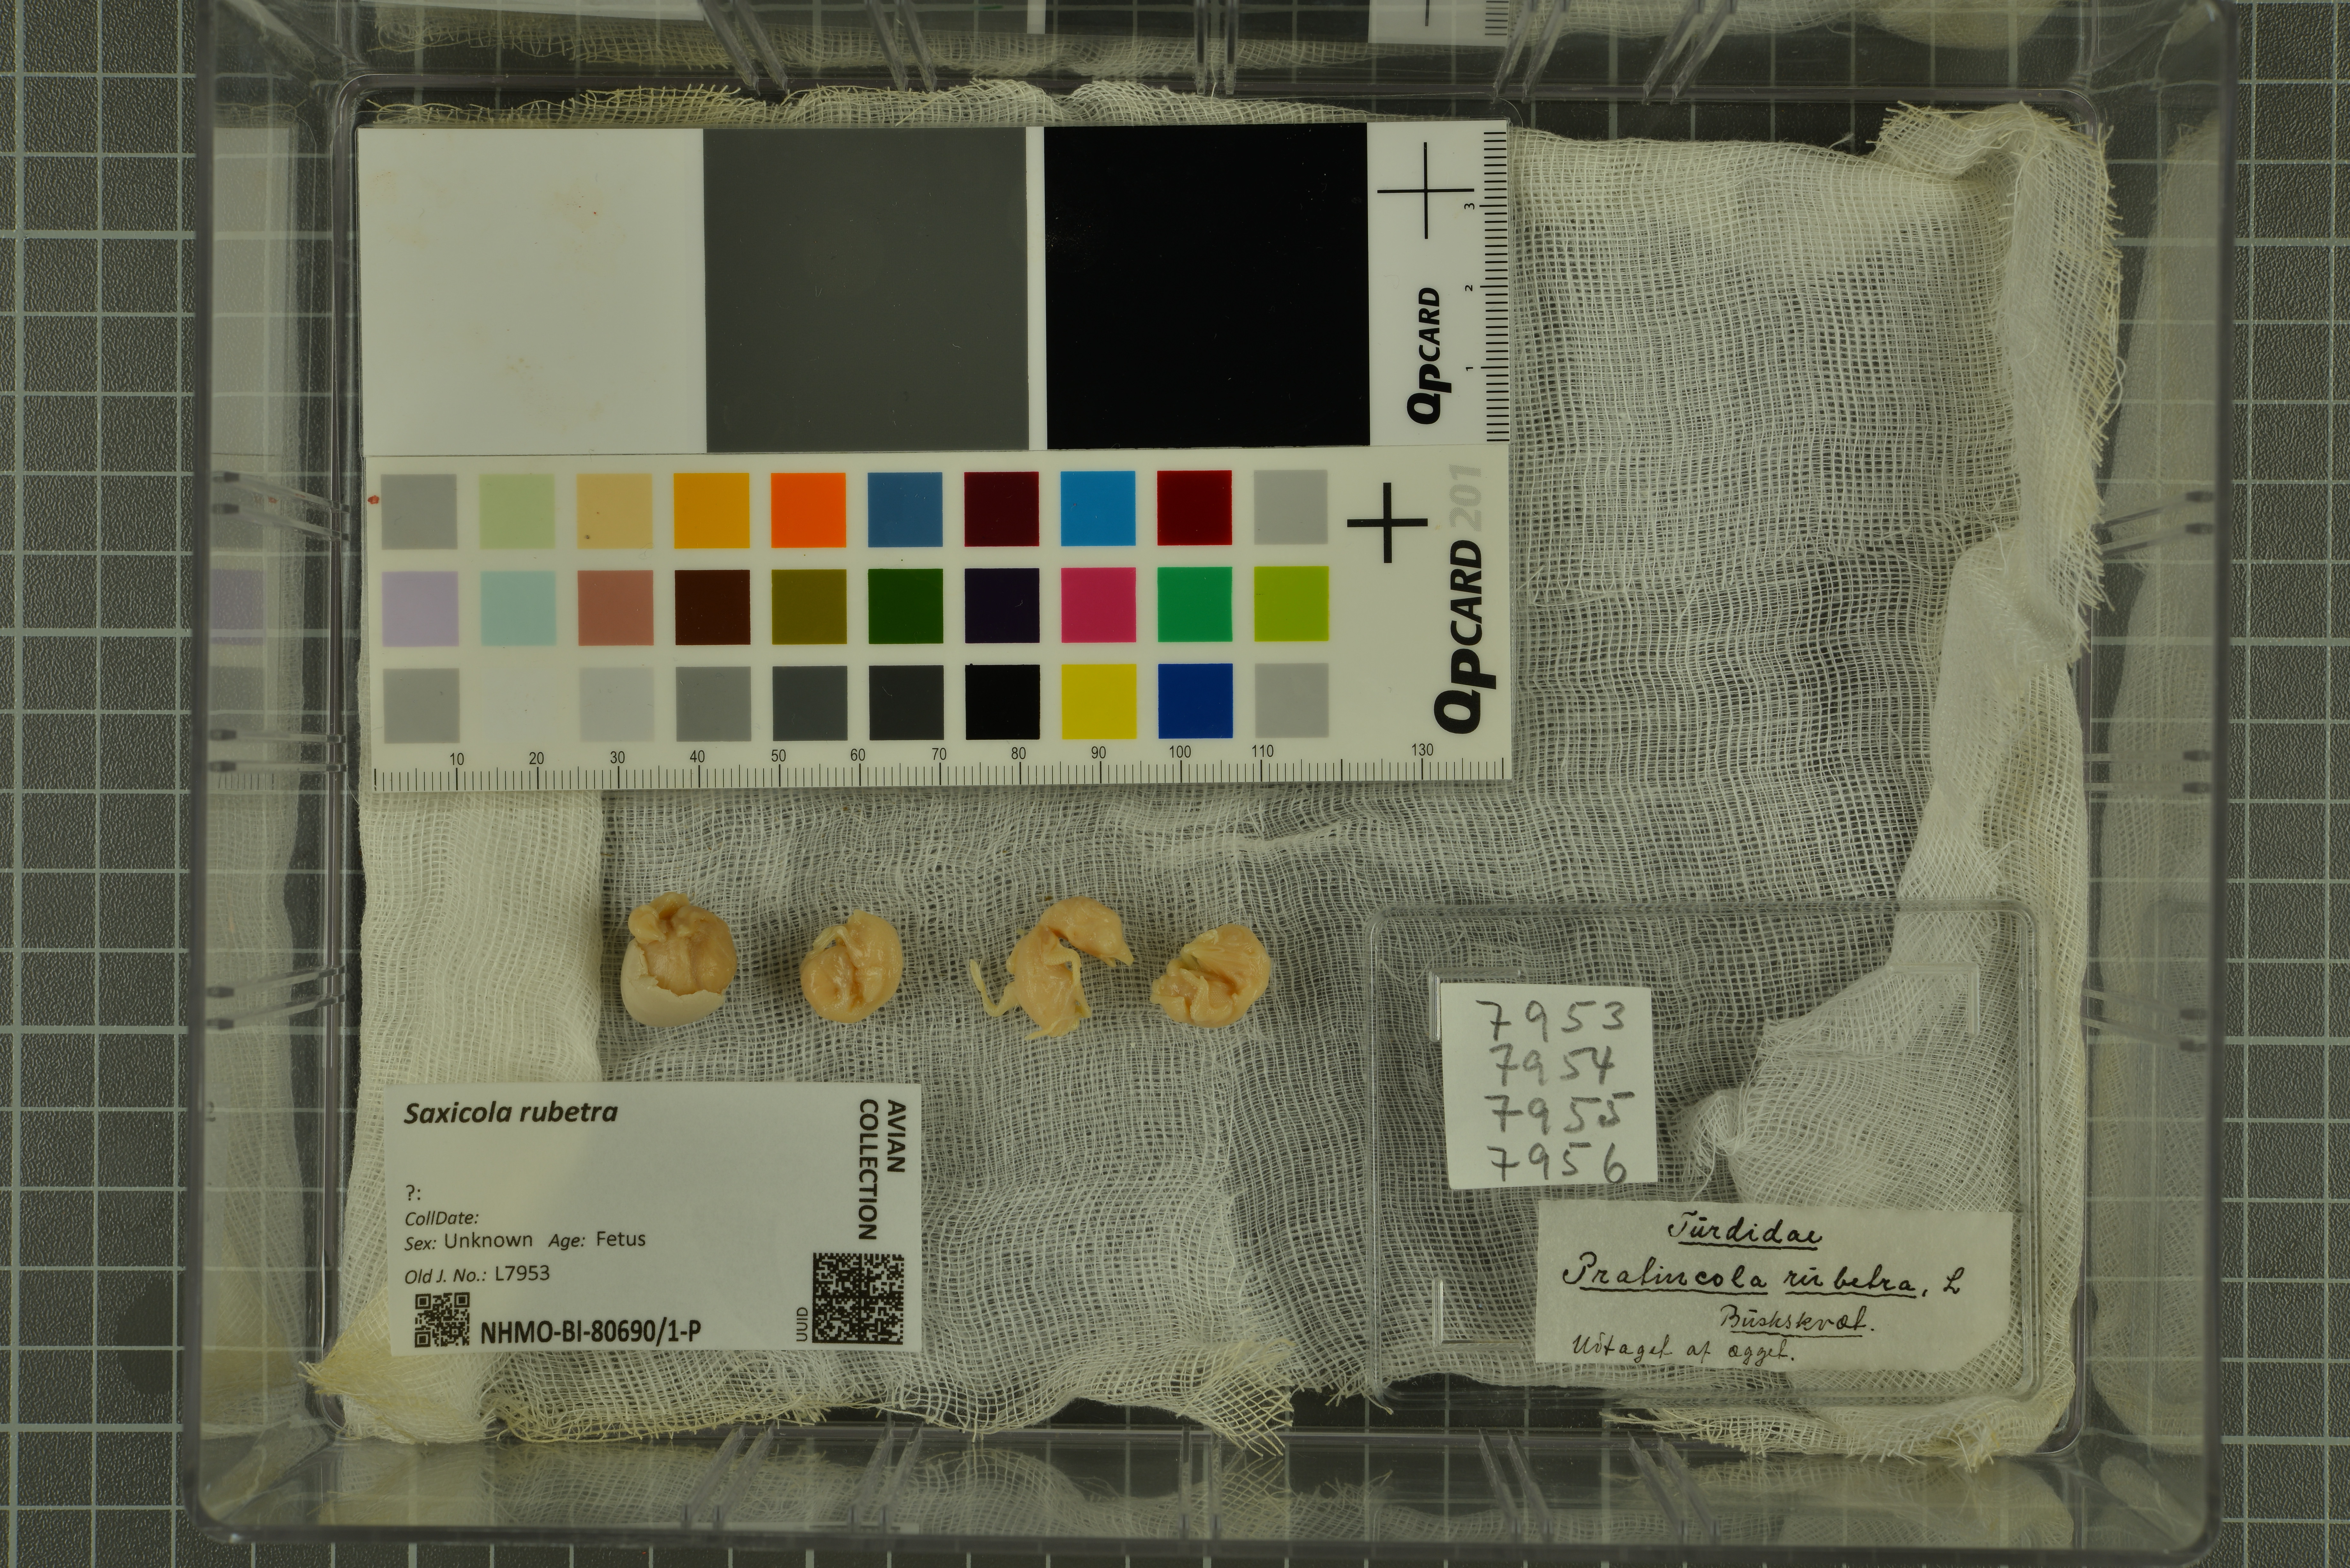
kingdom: Animalia
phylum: Chordata
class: Aves
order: Passeriformes
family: Muscicapidae
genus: Saxicola
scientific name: Saxicola rubetra
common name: Whinchat
